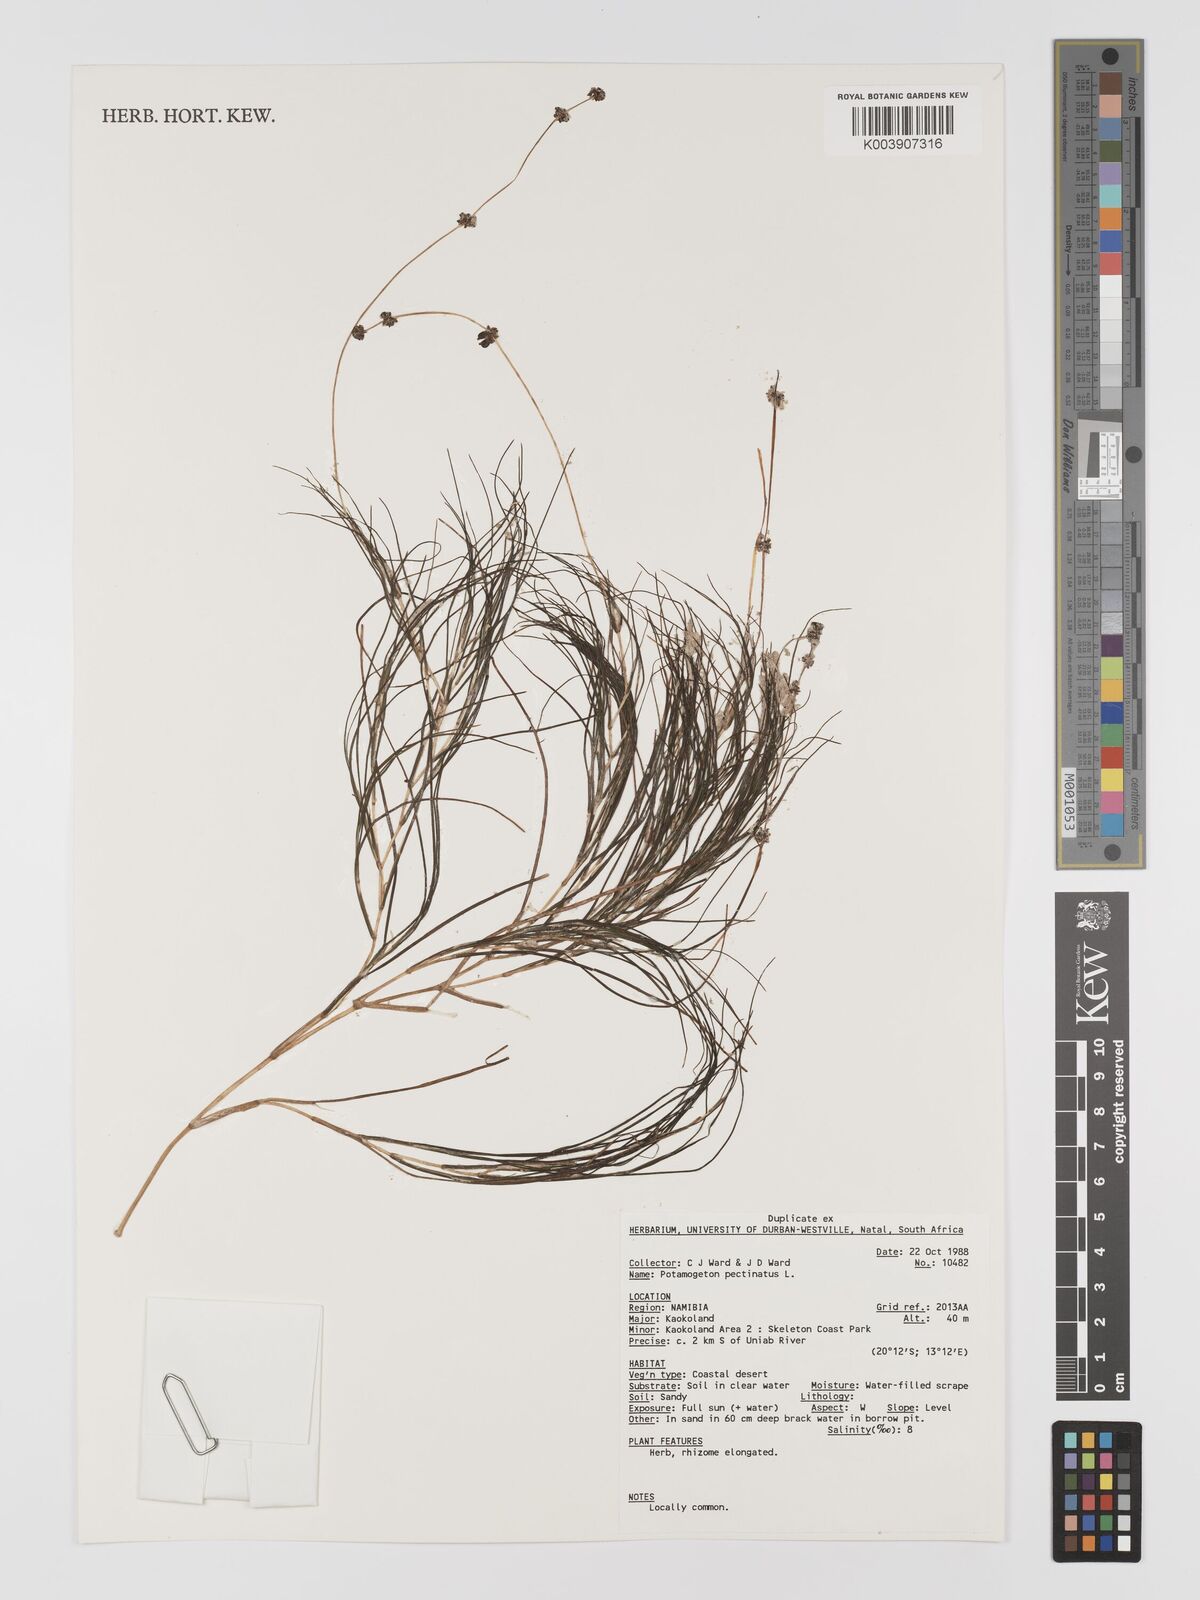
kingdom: Plantae
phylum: Tracheophyta
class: Liliopsida
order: Alismatales
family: Potamogetonaceae
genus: Stuckenia
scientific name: Stuckenia pectinata
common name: Sago pondweed
